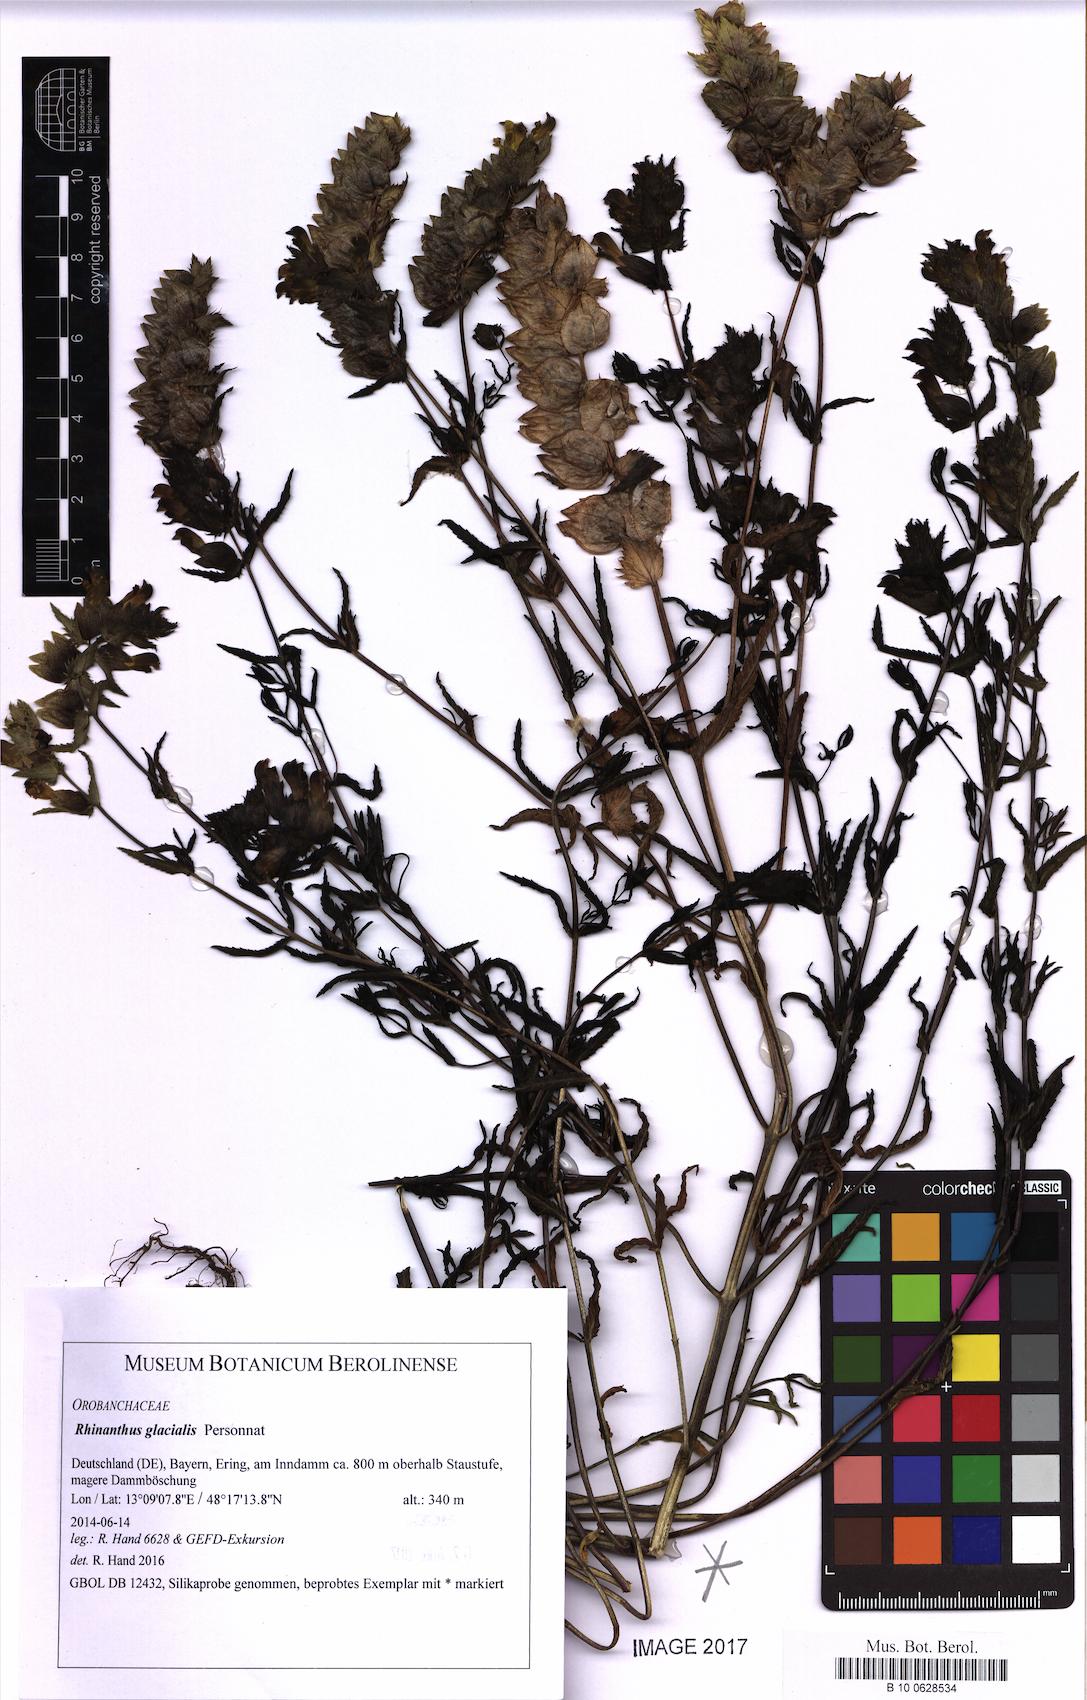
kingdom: Plantae
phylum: Tracheophyta
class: Magnoliopsida
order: Lamiales
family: Orobanchaceae
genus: Rhinanthus
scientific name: Rhinanthus glacialis
